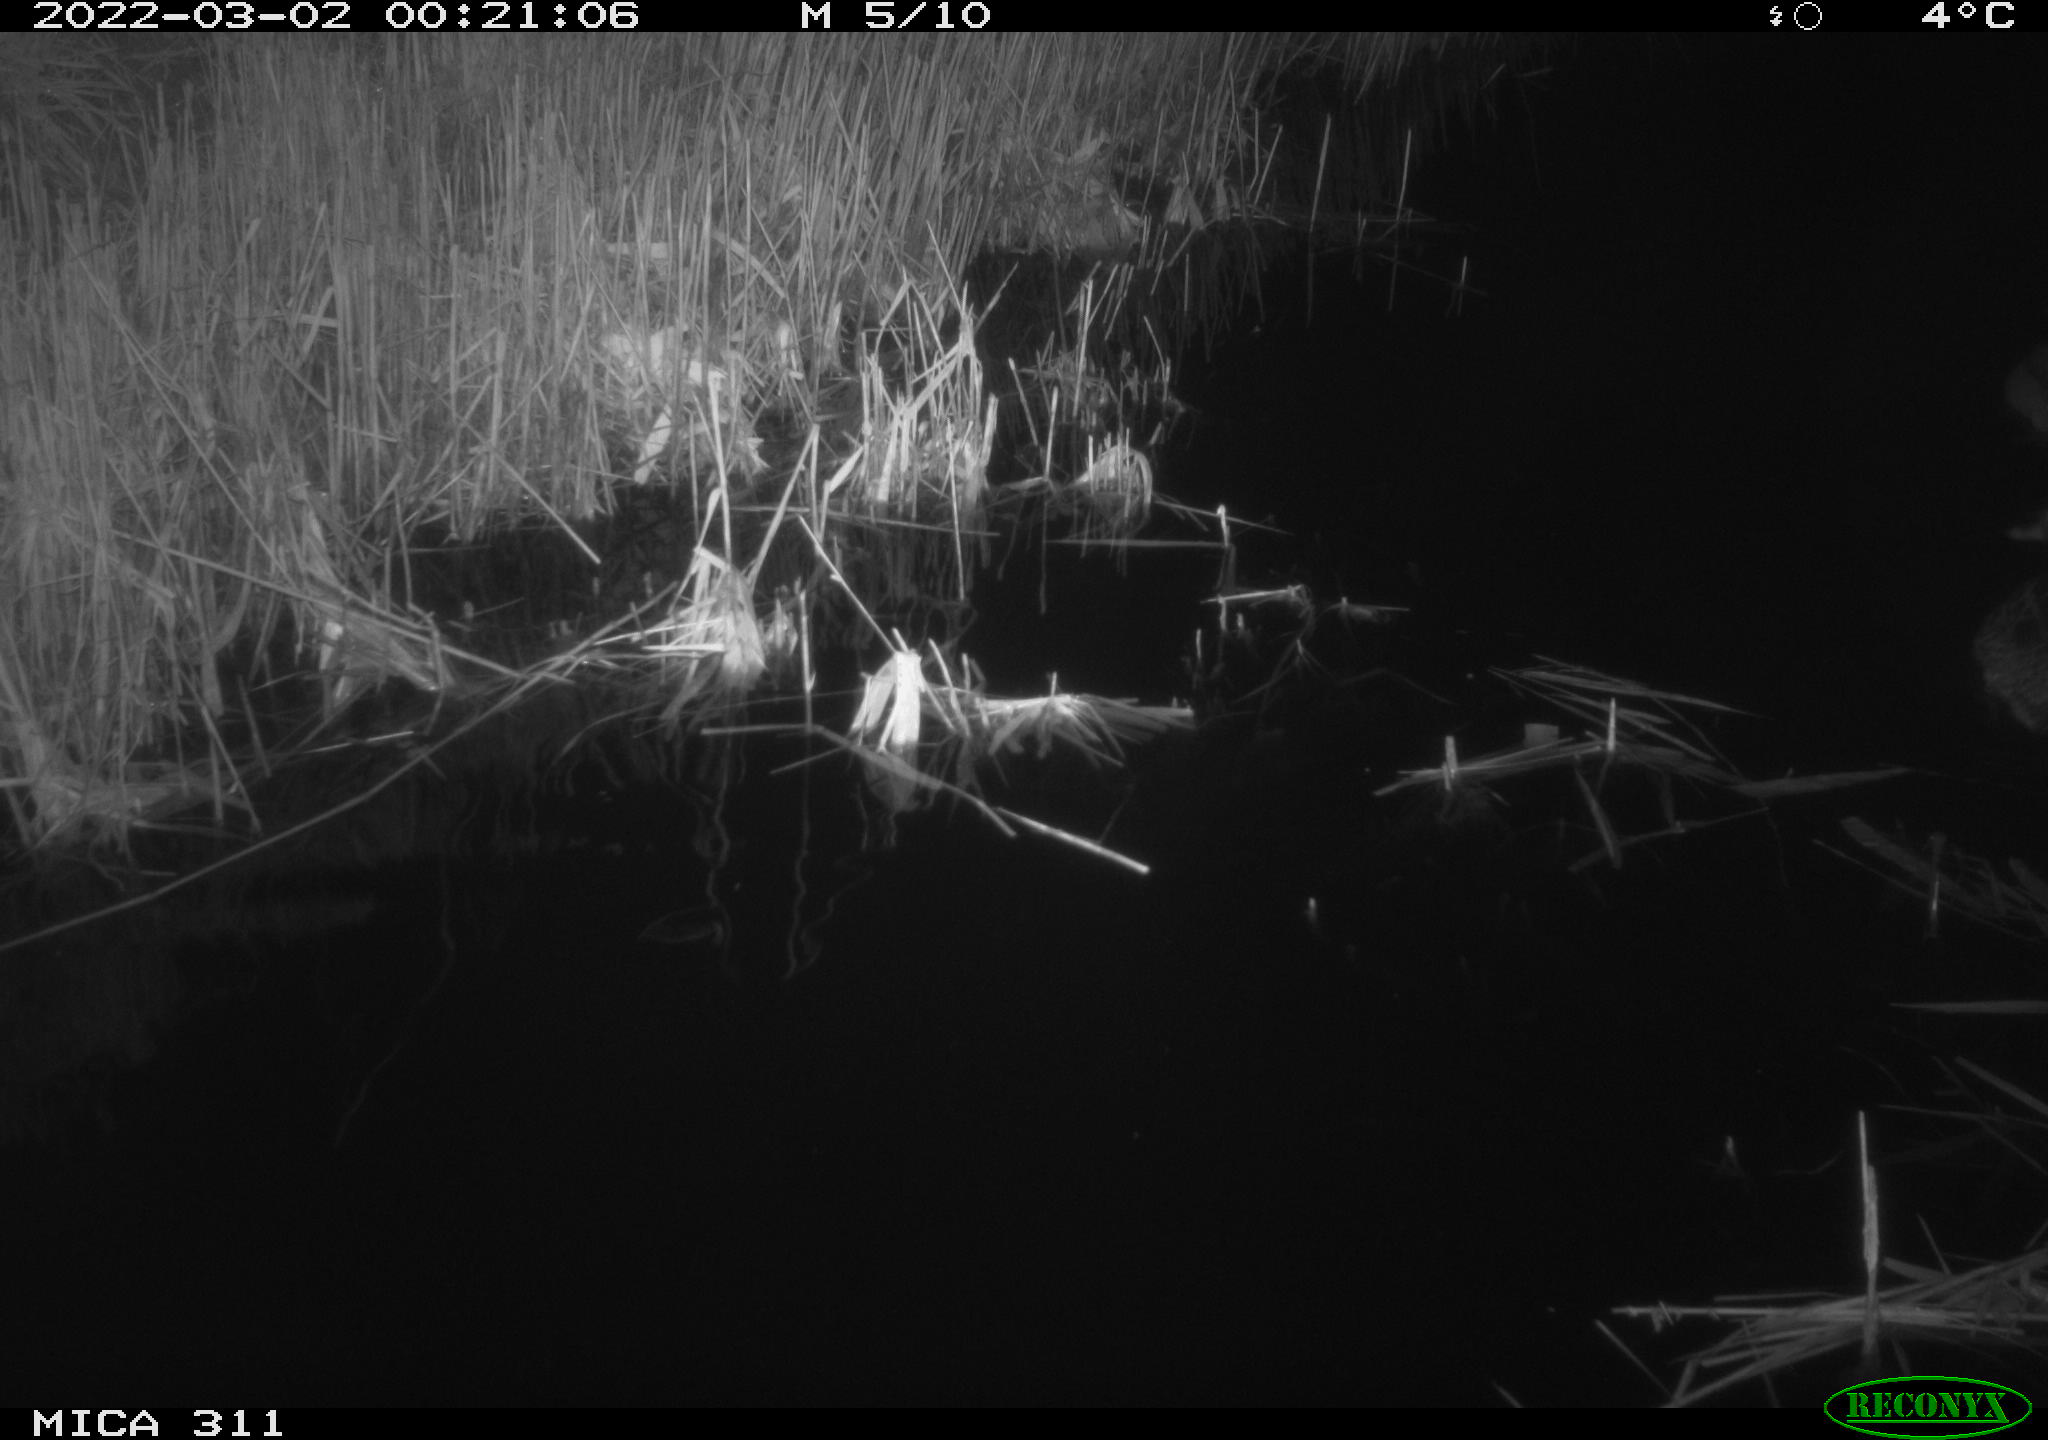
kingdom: Animalia
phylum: Chordata
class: Aves
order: Anseriformes
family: Anatidae
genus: Anas
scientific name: Anas
